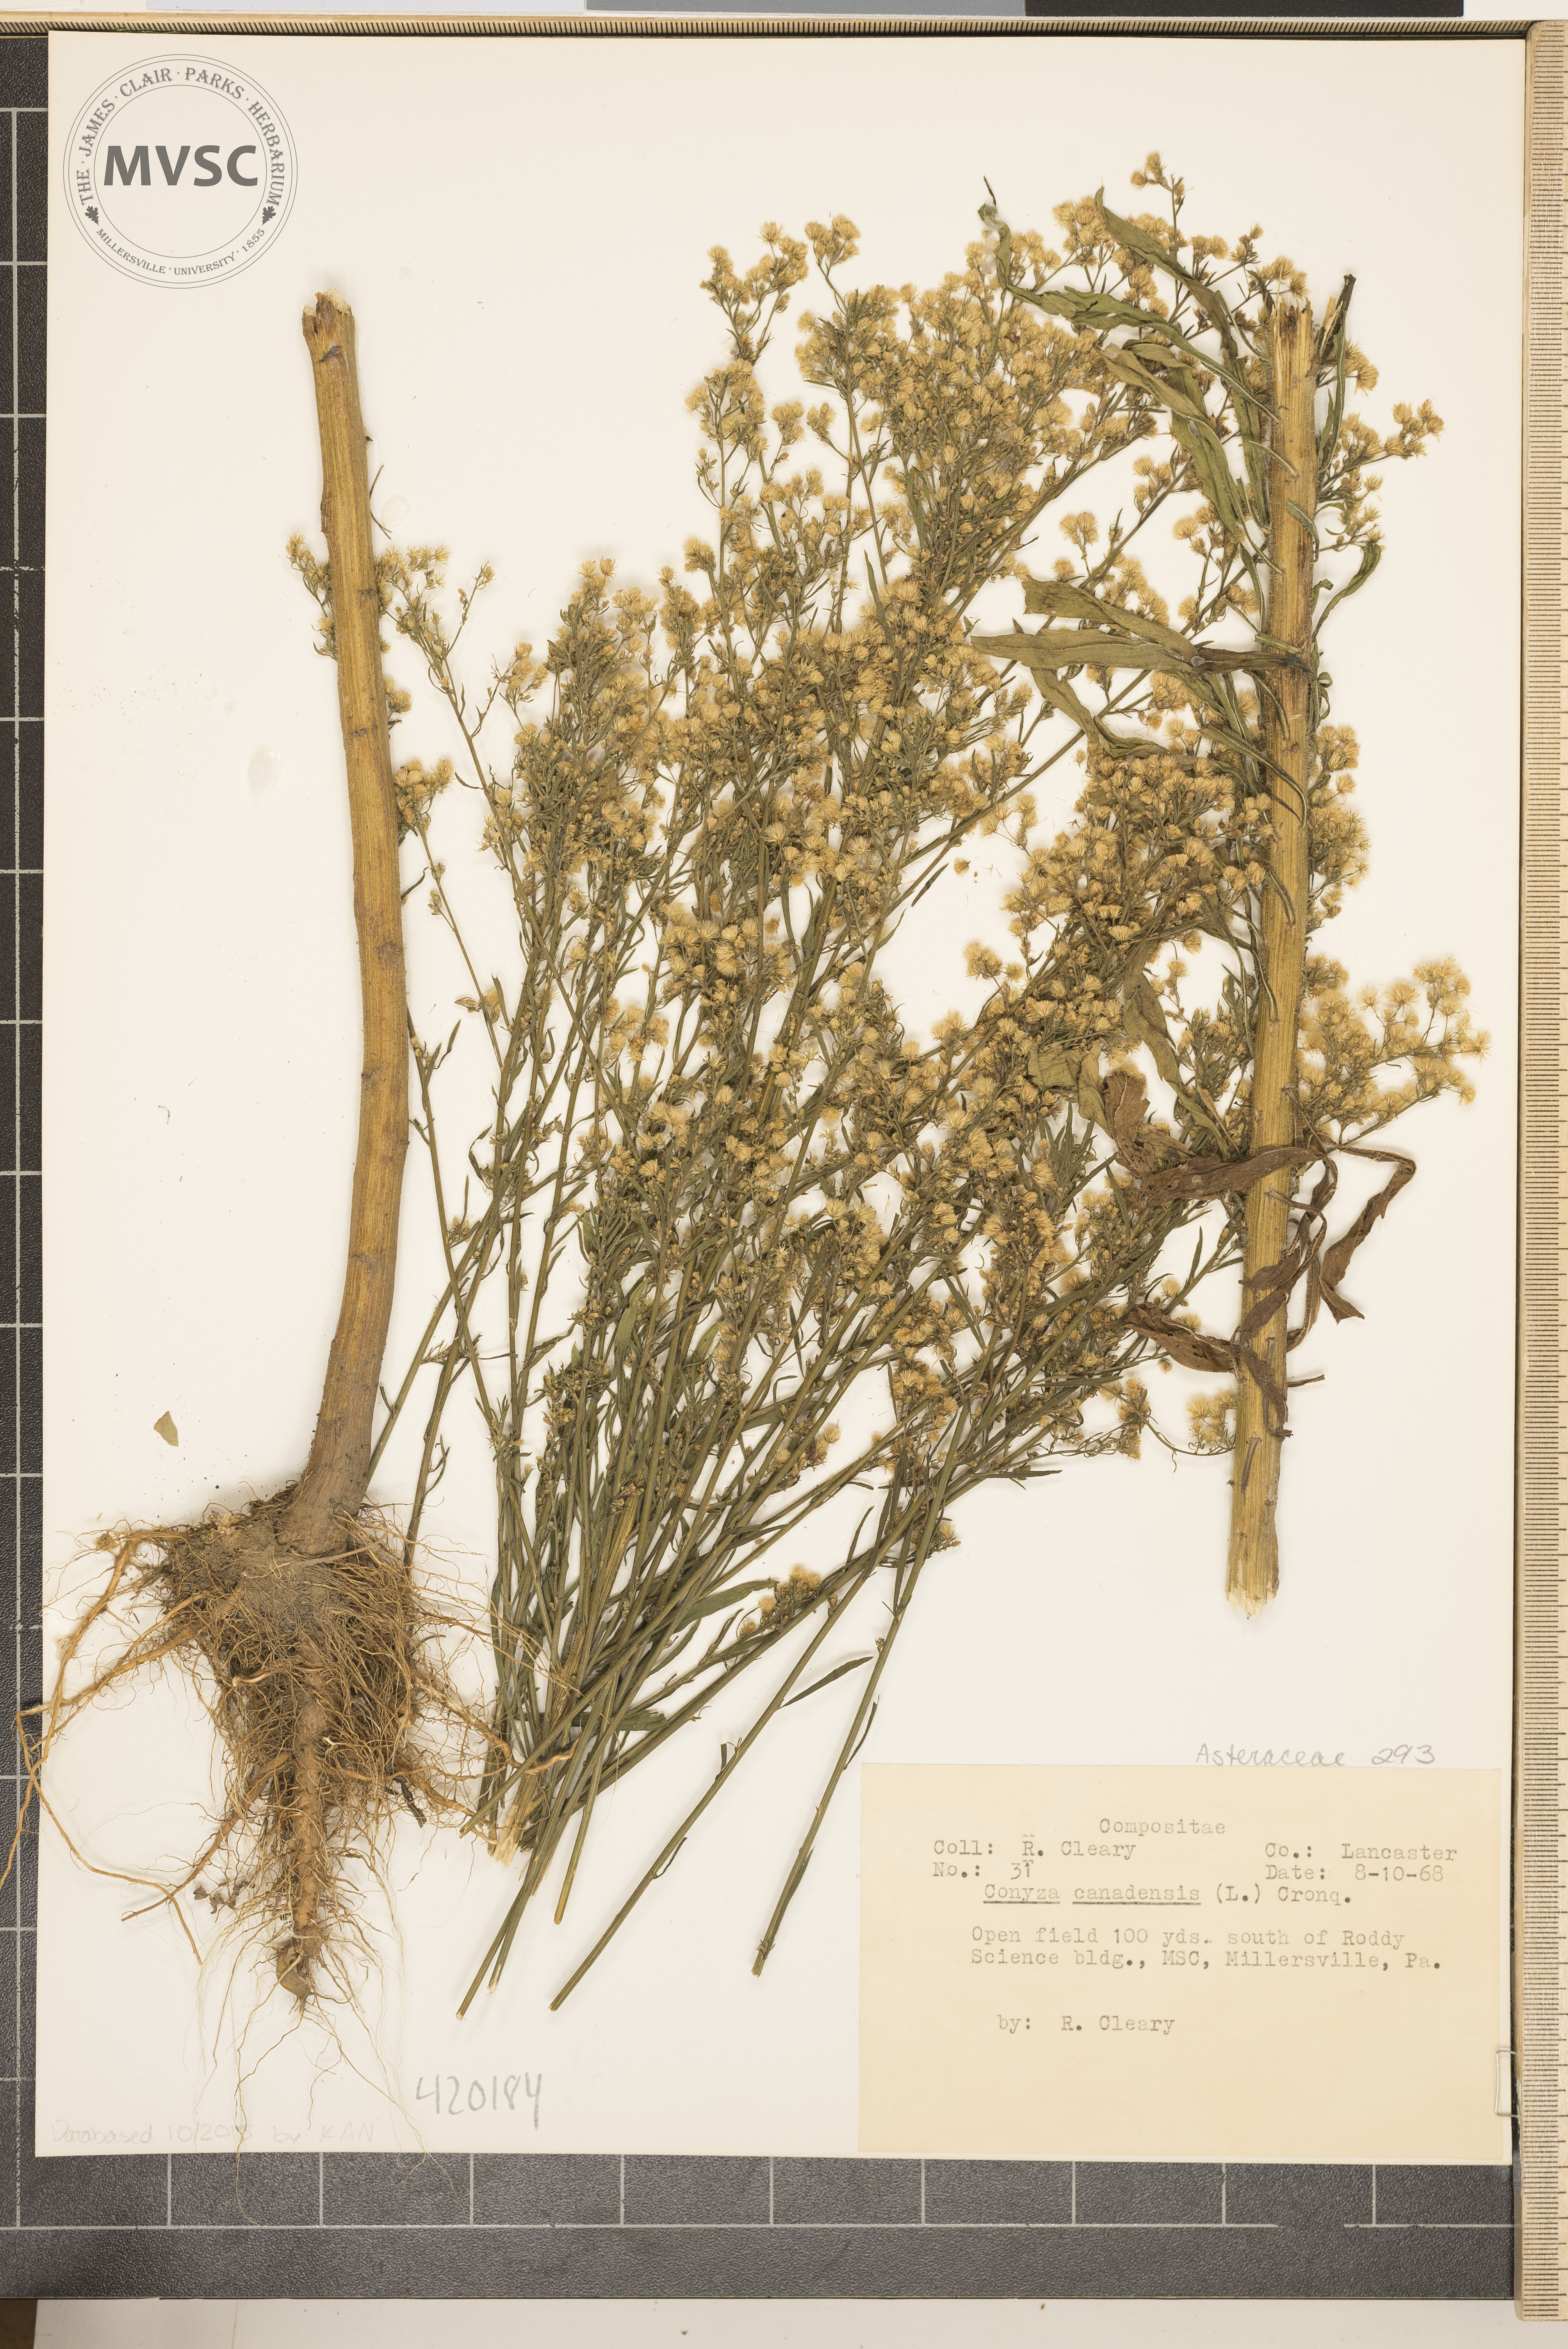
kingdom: Plantae
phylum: Tracheophyta
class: Magnoliopsida
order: Asterales
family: Asteraceae
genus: Erigeron
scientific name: Erigeron canadensis
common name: Horseweed
